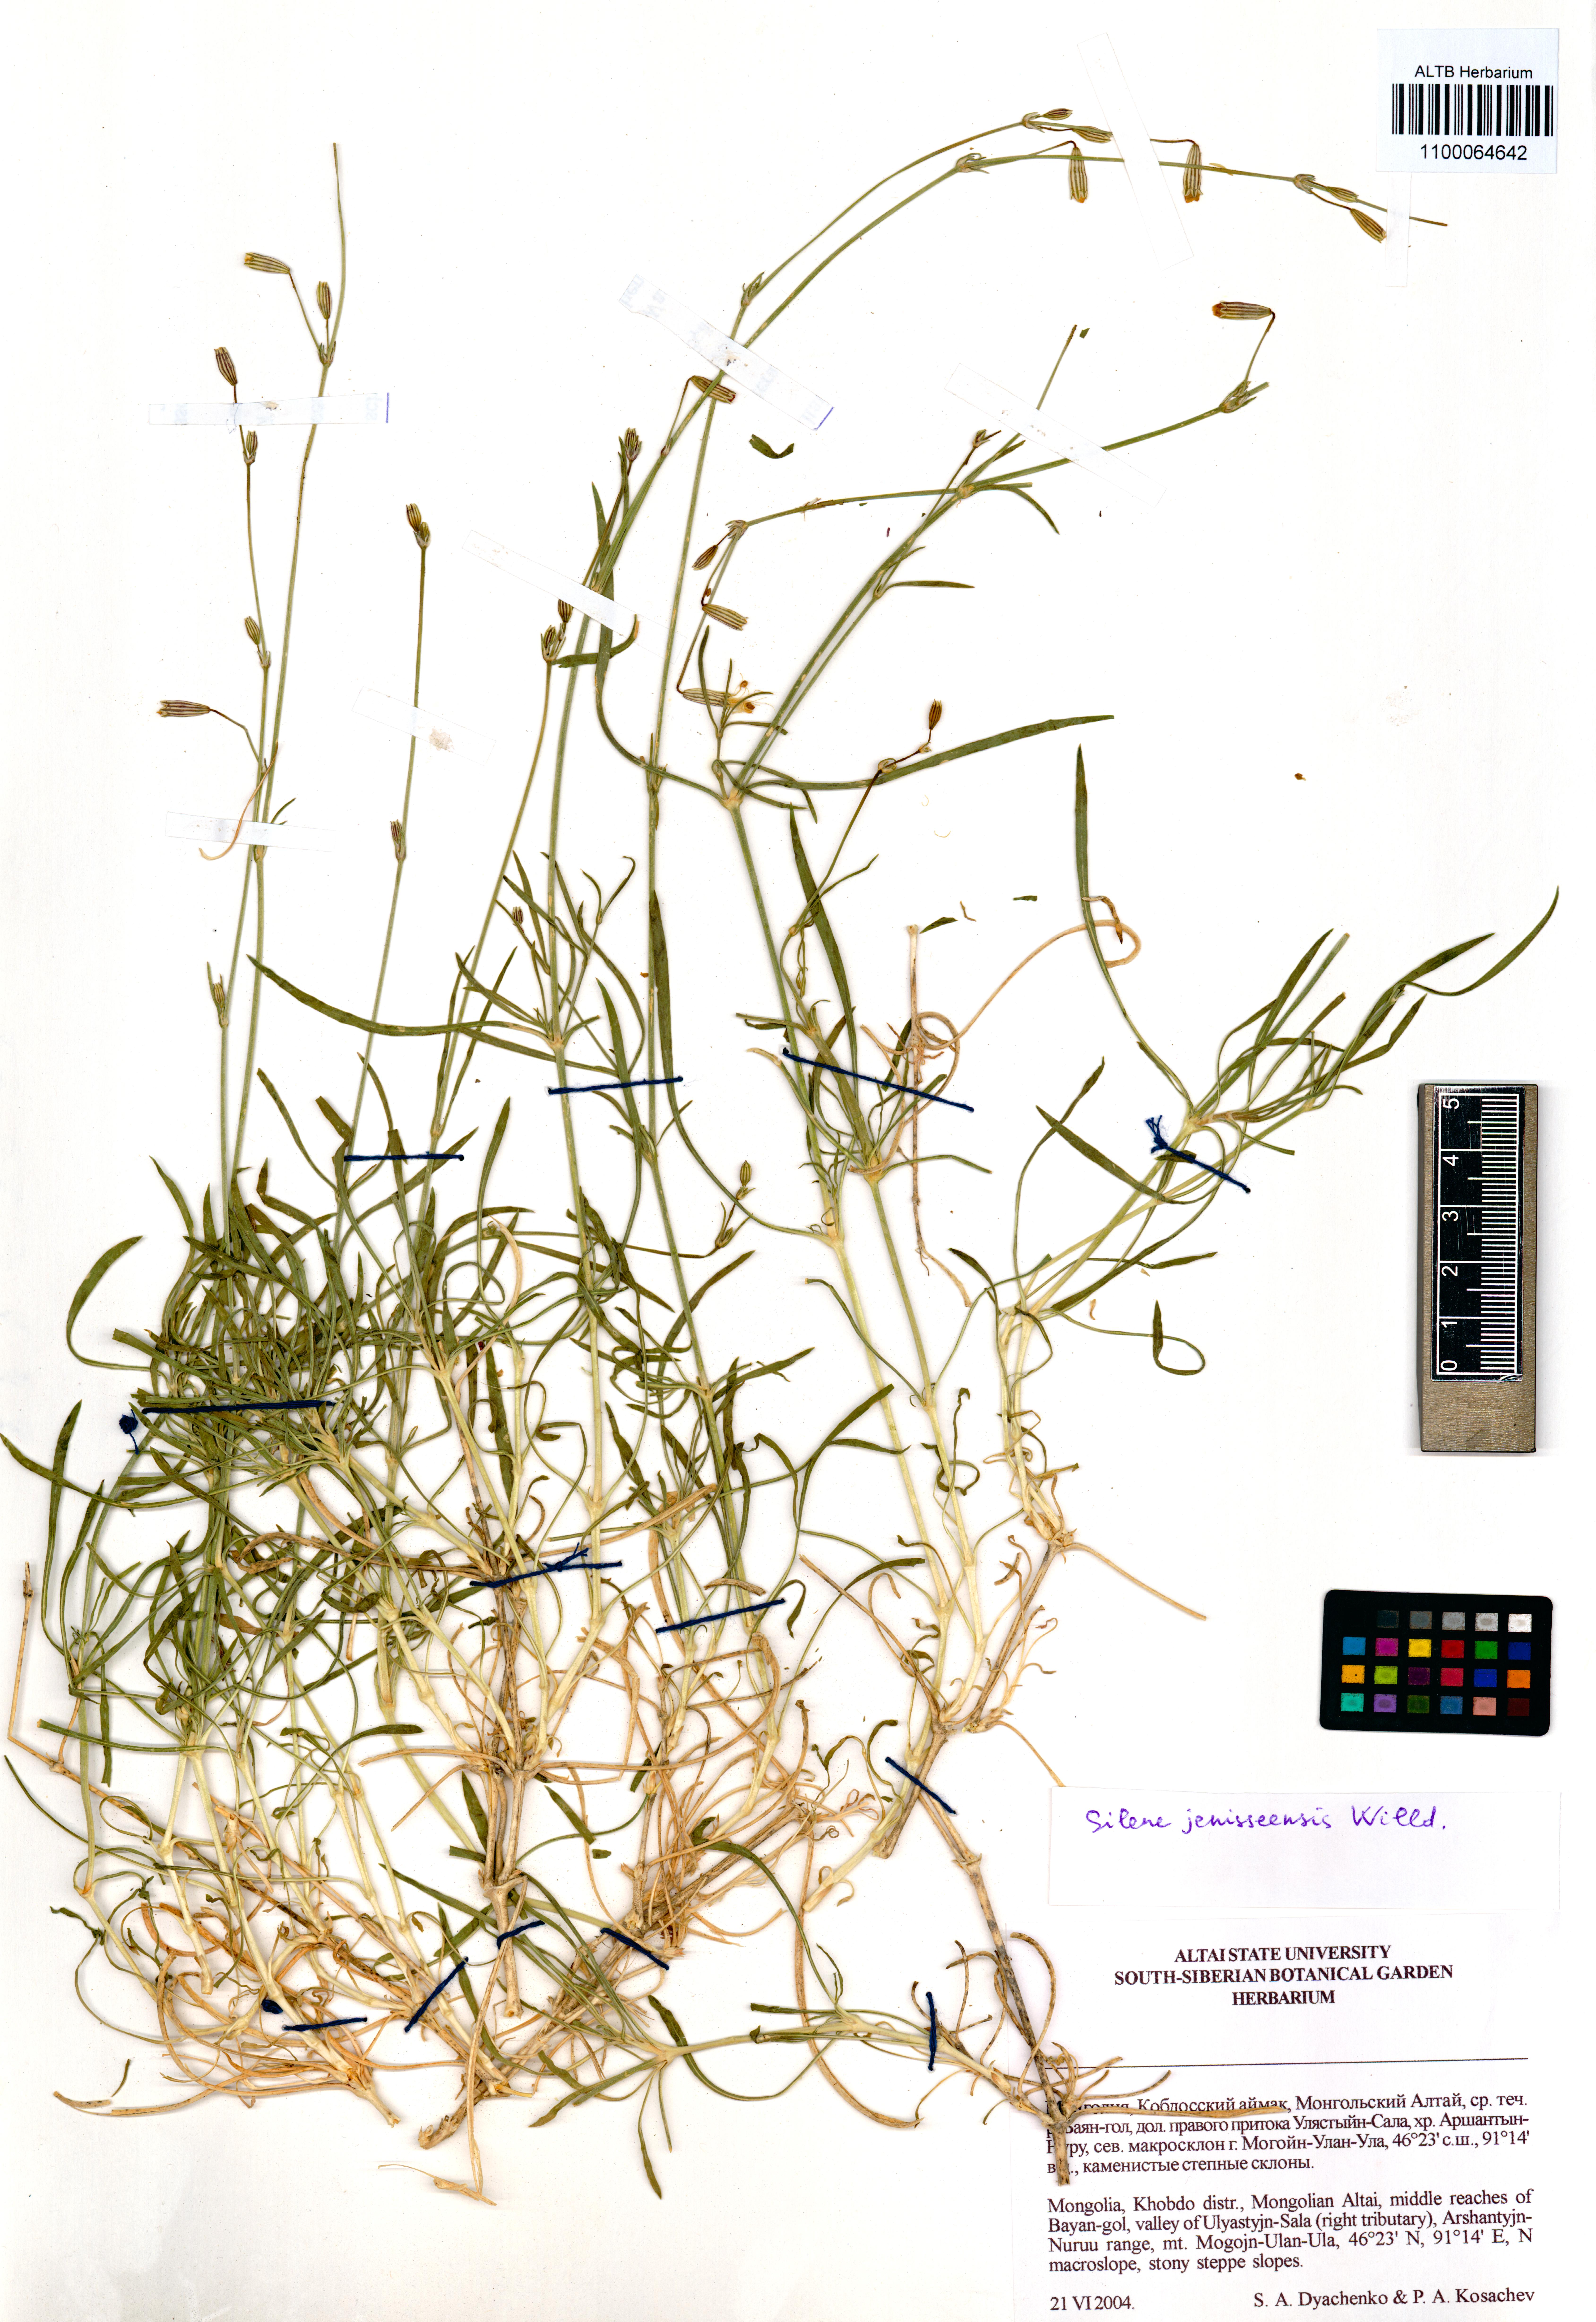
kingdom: Plantae
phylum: Tracheophyta
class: Magnoliopsida
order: Caryophyllales
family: Caryophyllaceae
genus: Silene
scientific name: Silene jeniseensis
